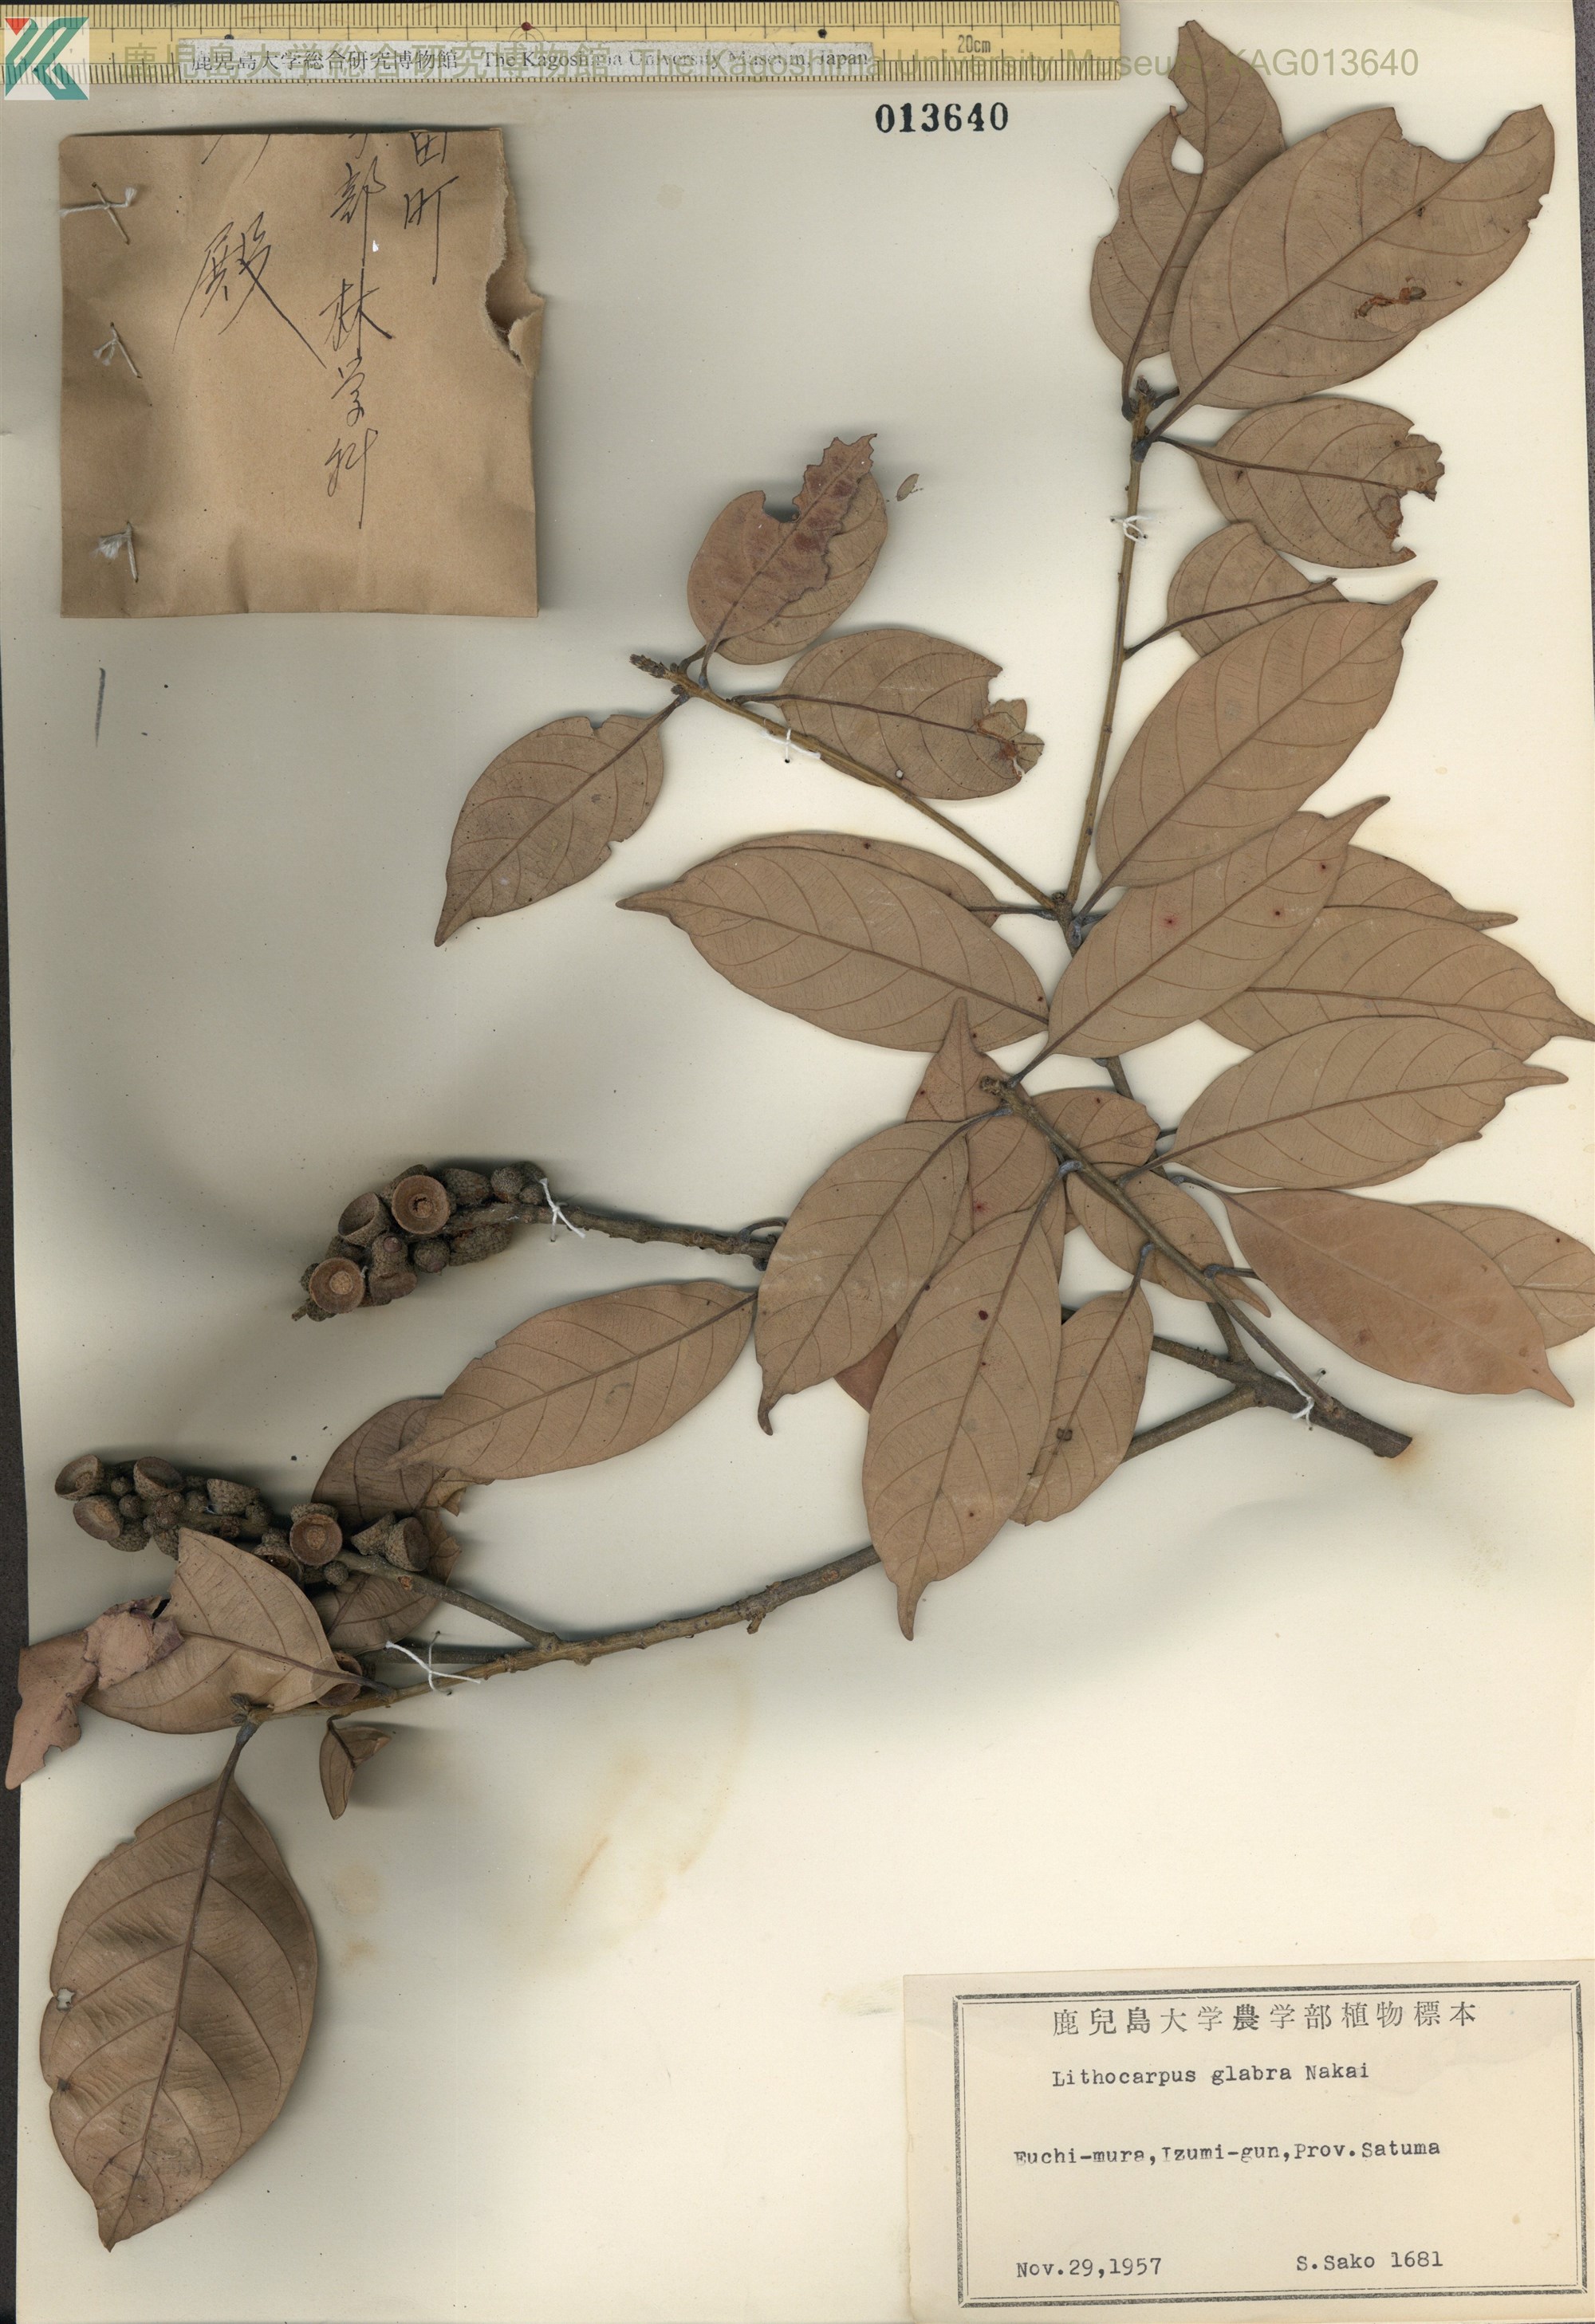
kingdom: Plantae
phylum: Tracheophyta
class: Magnoliopsida
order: Fagales
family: Fagaceae
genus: Lithocarpus
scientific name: Lithocarpus glaber
